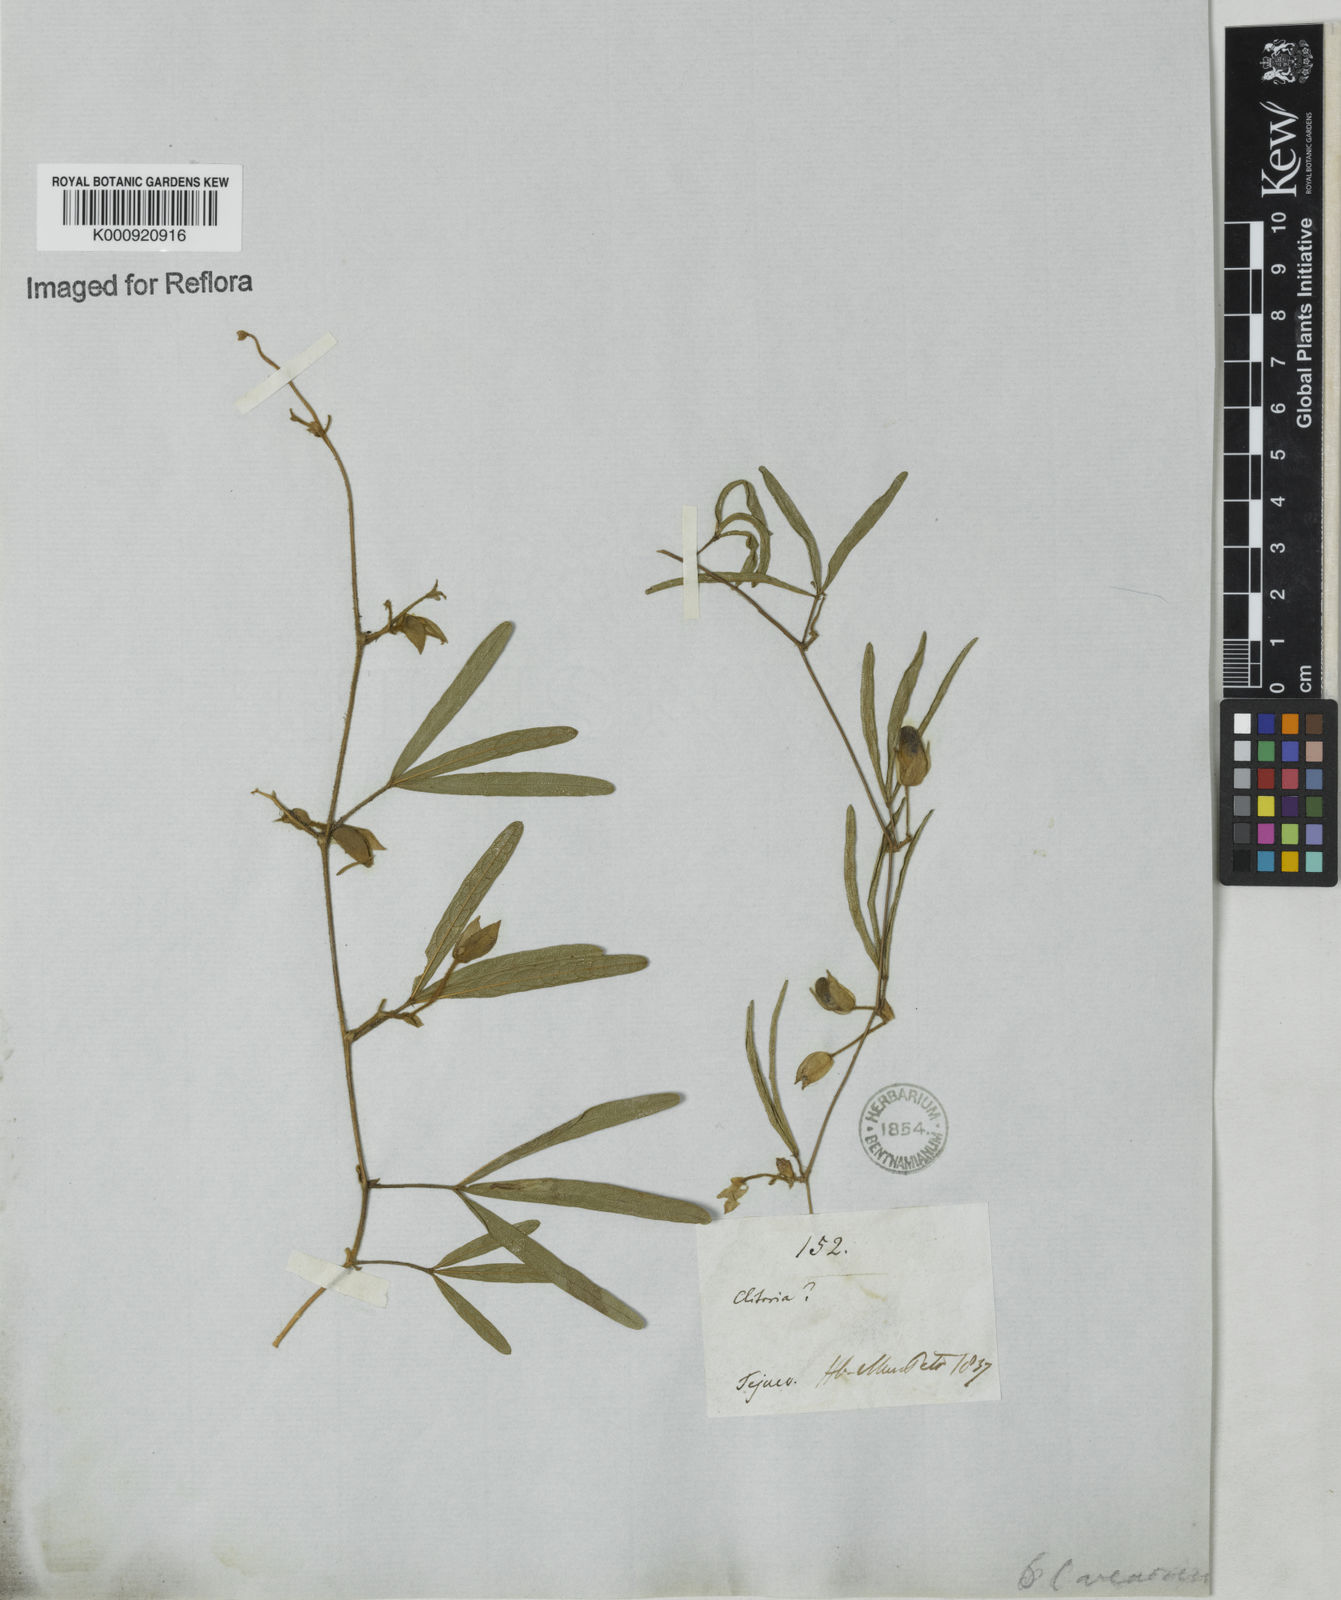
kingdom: Plantae
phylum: Tracheophyta
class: Magnoliopsida
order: Fabales
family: Fabaceae
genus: Centrosema
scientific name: Centrosema
